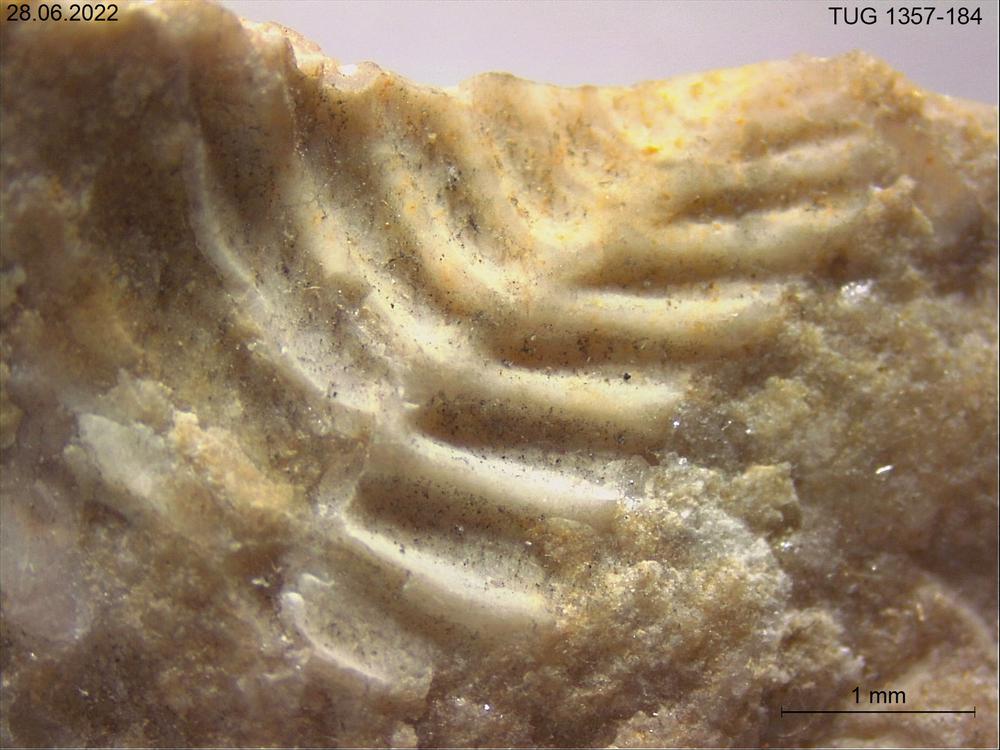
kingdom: Animalia
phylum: Arthropoda
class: Trilobita
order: Phacopida
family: Pterygometopidae
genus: Chasmops
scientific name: Chasmops macrourus
